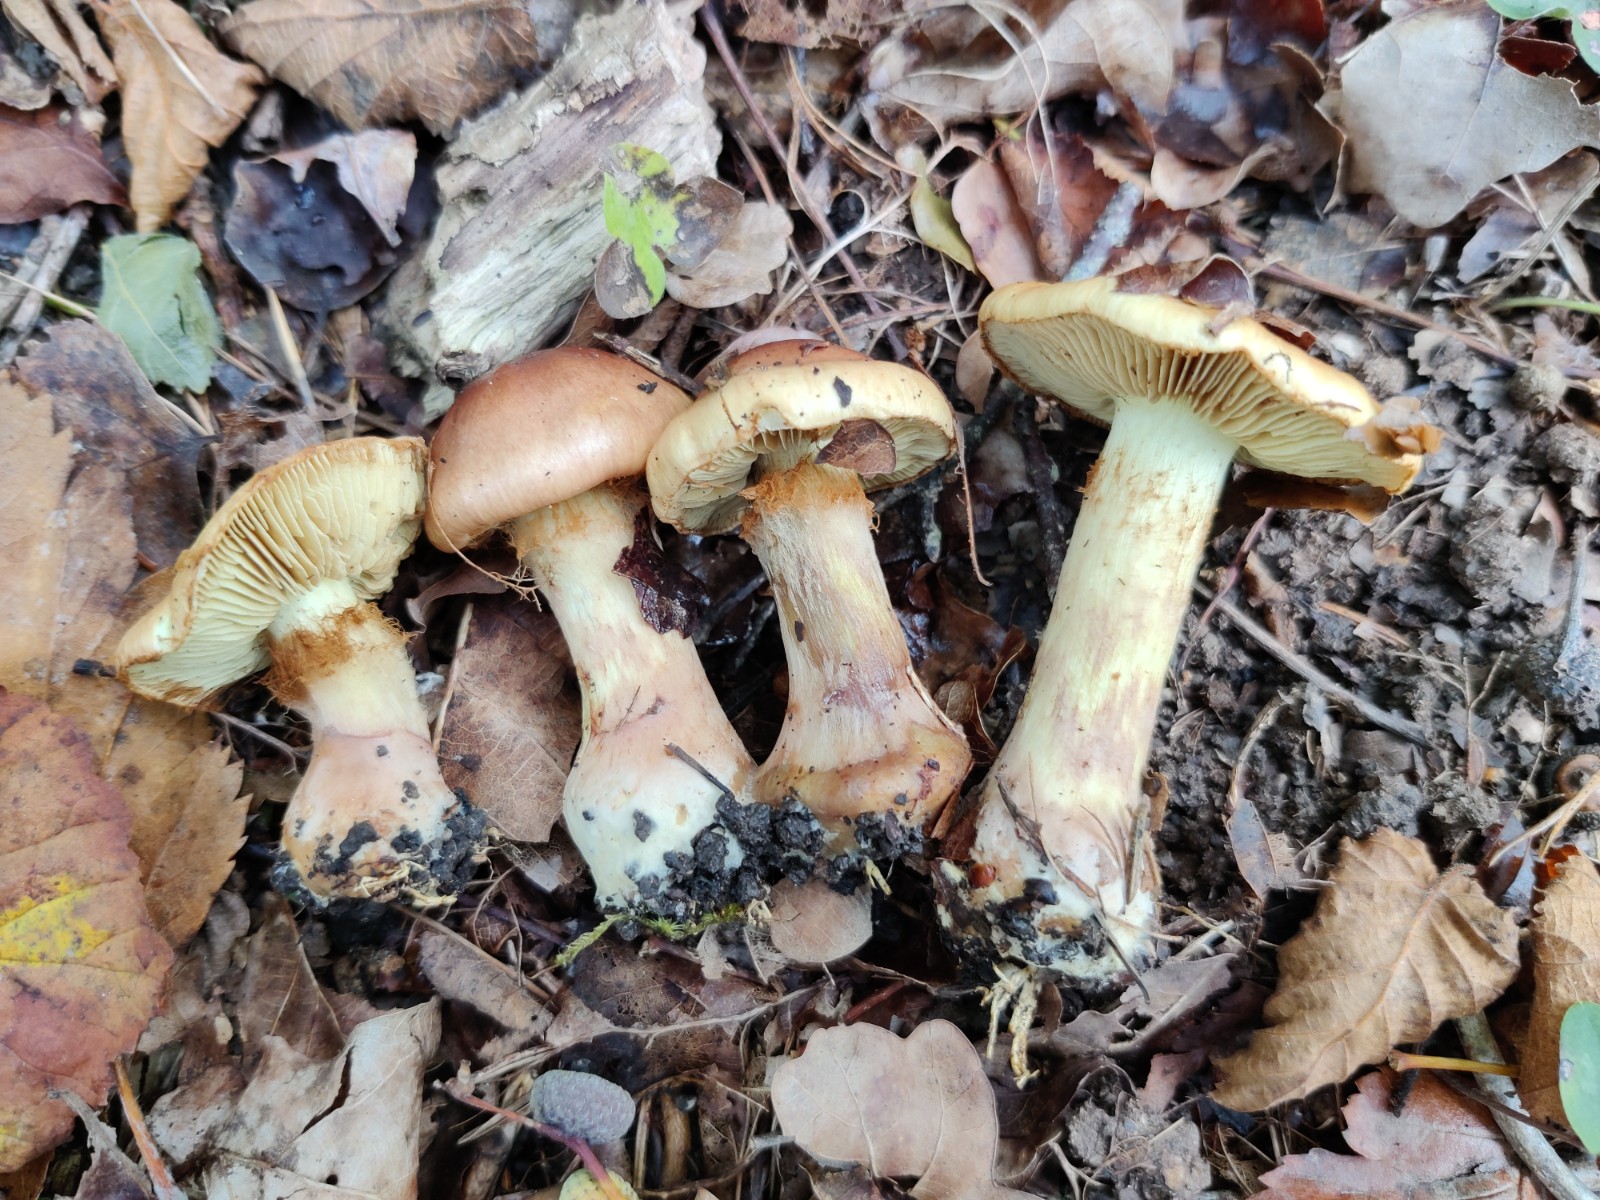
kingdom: Fungi
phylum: Basidiomycota
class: Agaricomycetes
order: Agaricales
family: Cortinariaceae
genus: Phlegmacium
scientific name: Phlegmacium stjernegaardii
